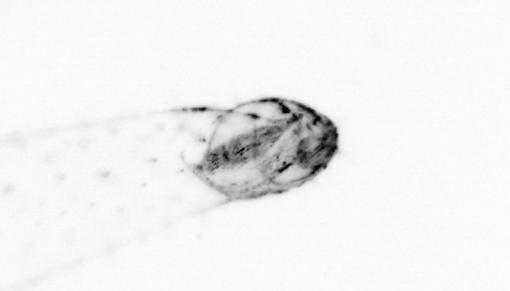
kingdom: Animalia
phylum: Chaetognatha
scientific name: Chaetognatha
